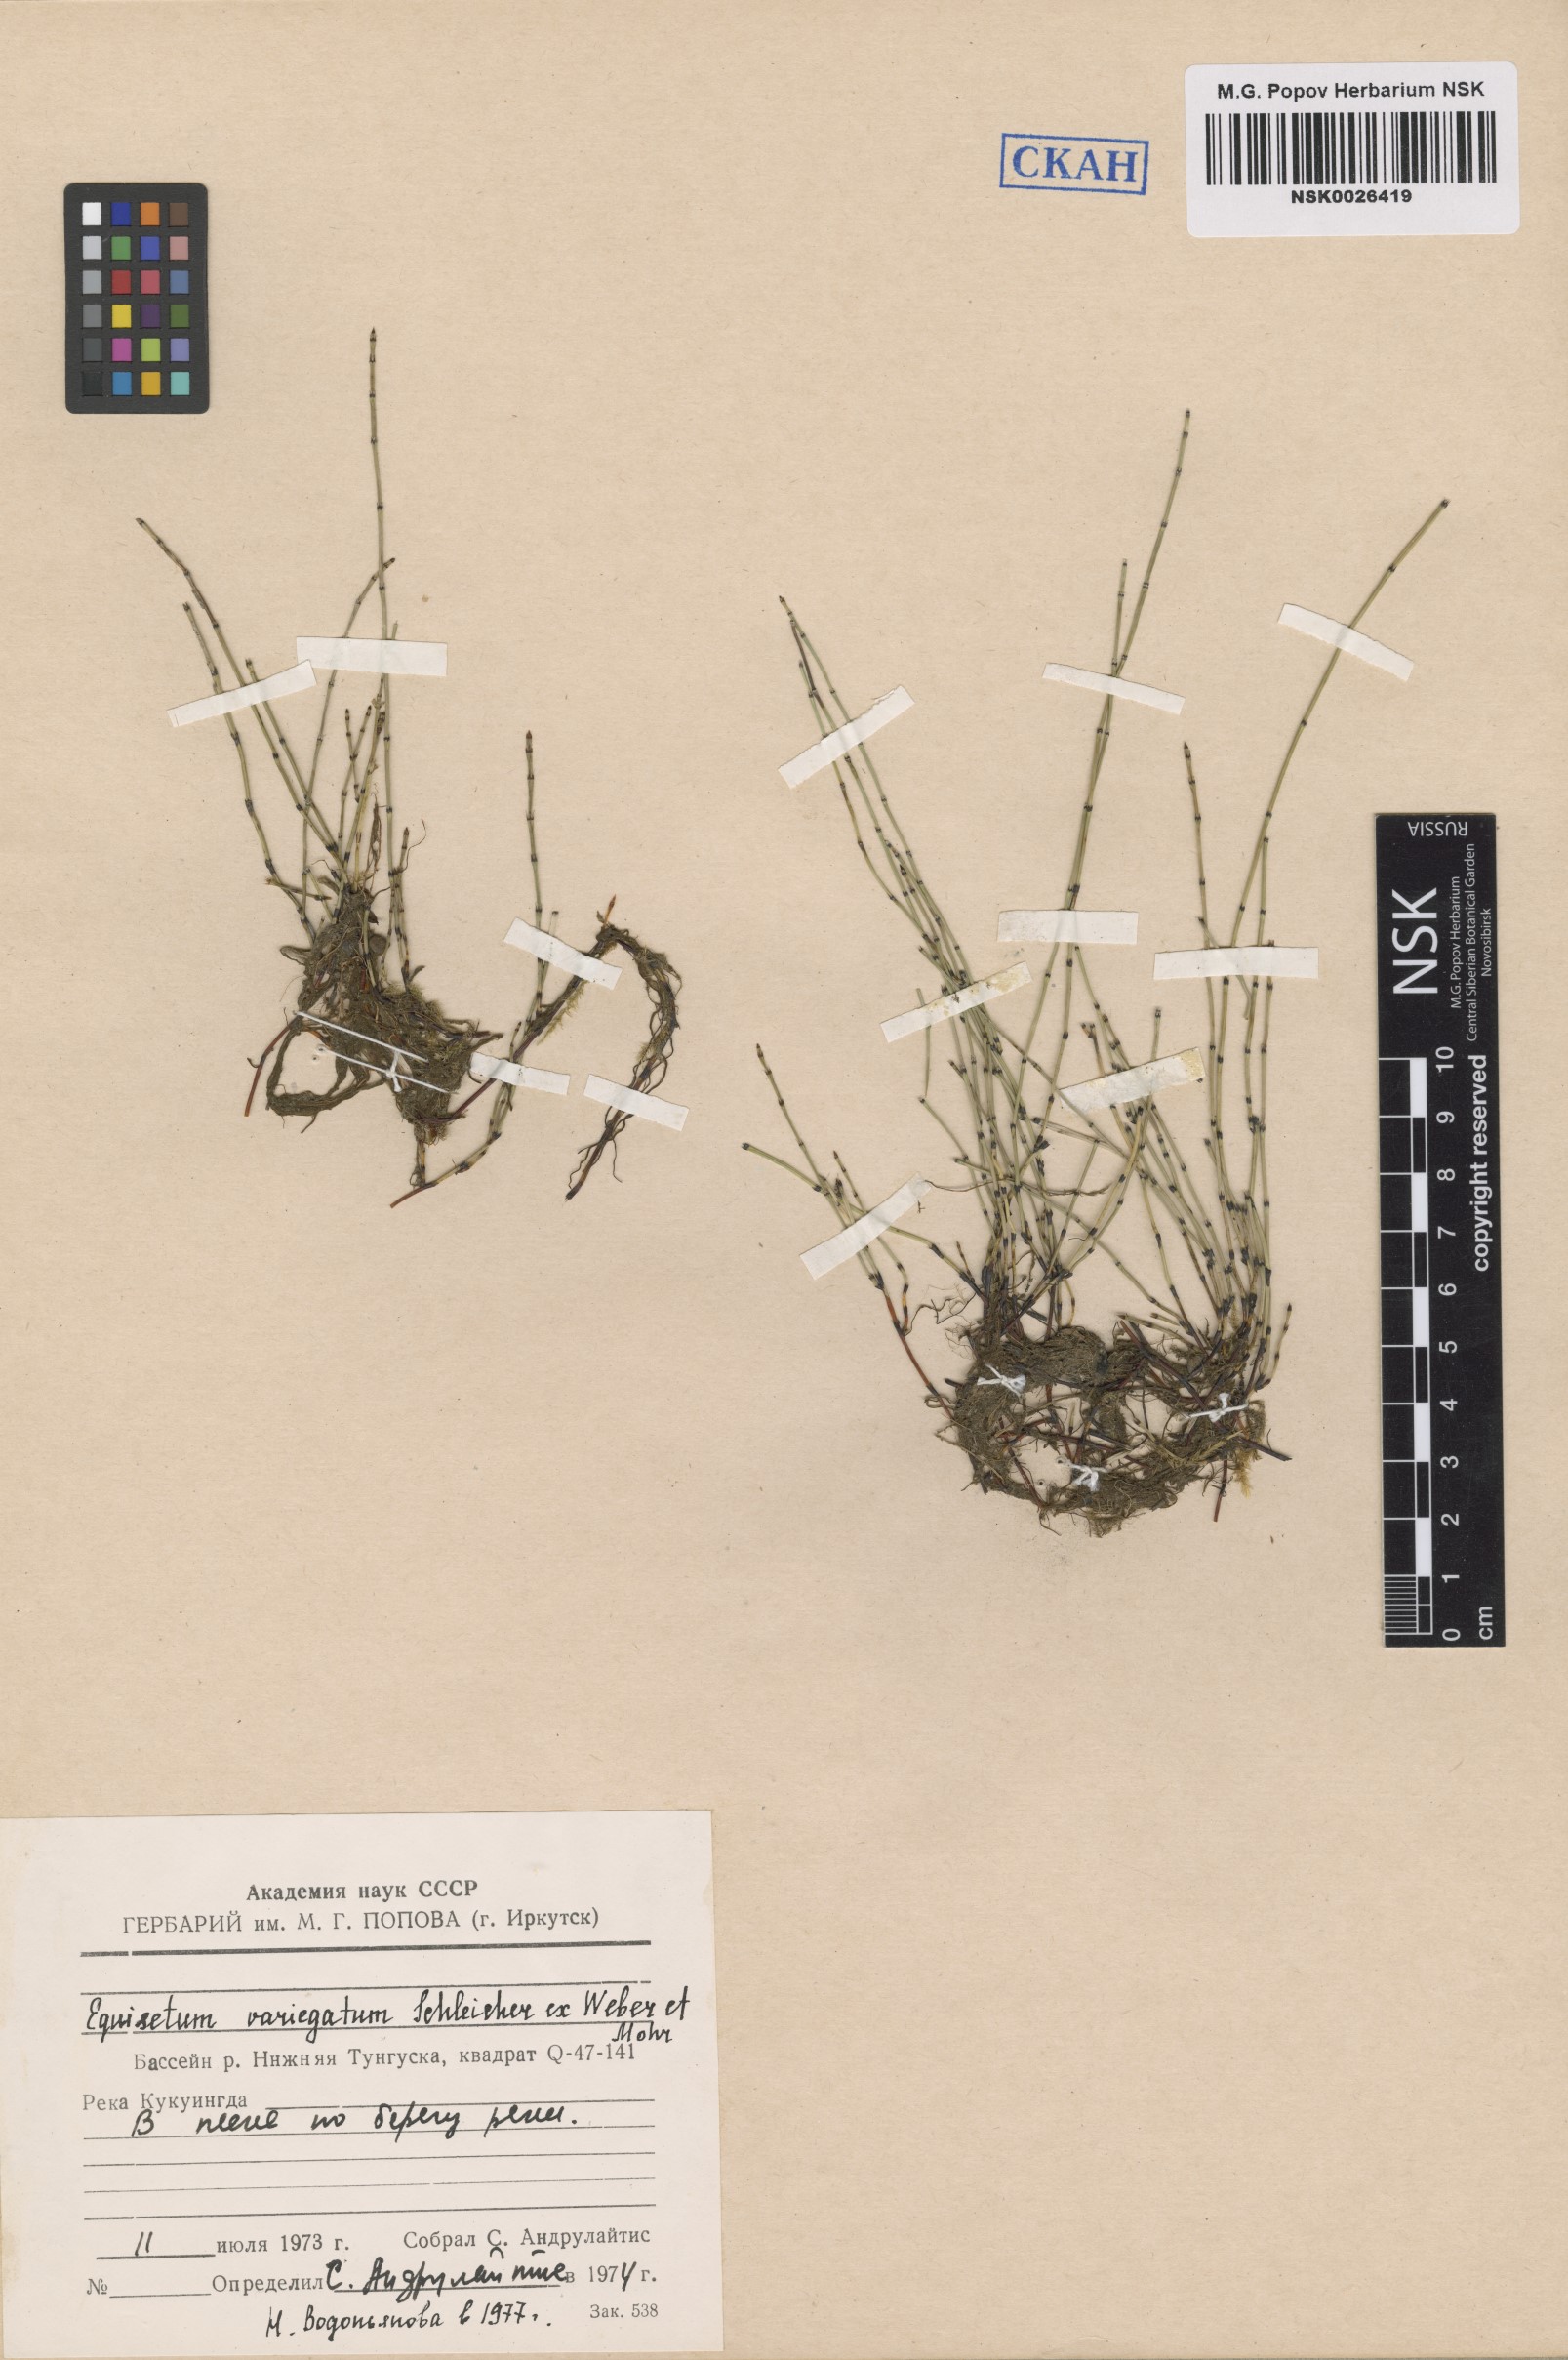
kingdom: Plantae
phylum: Tracheophyta
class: Polypodiopsida
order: Equisetales
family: Equisetaceae
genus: Equisetum
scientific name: Equisetum variegatum
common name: Variegated horsetail
